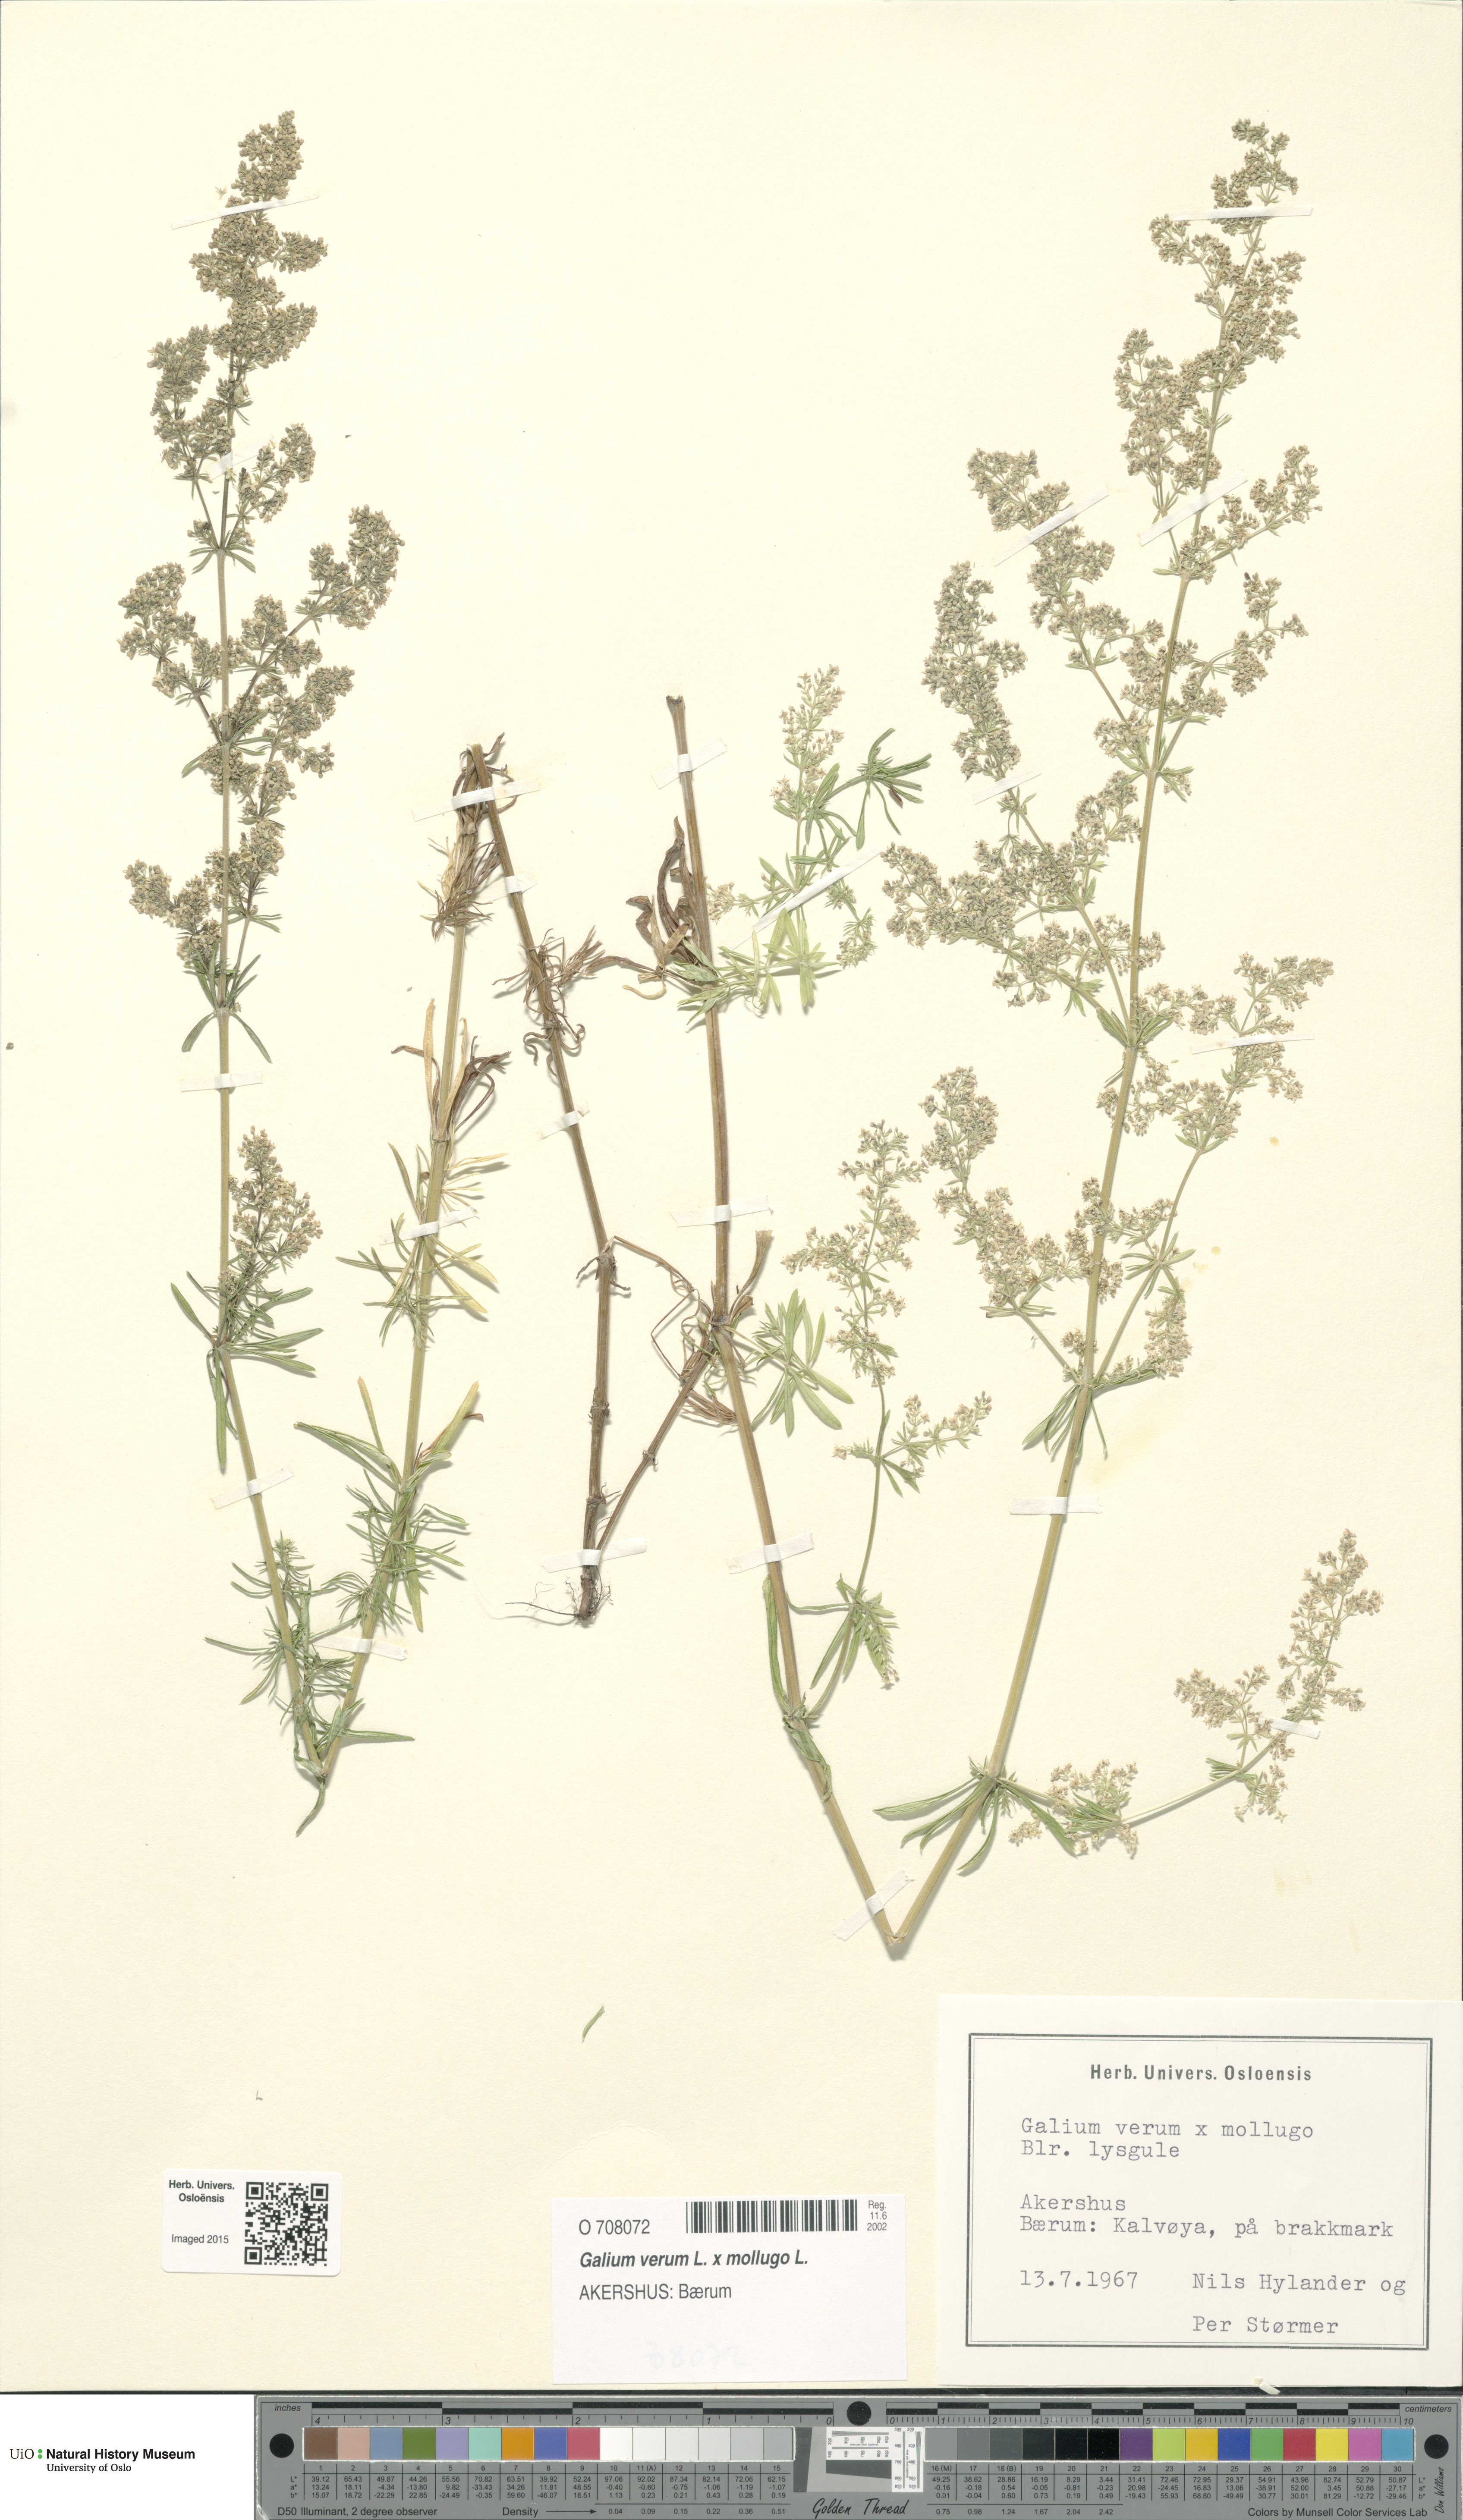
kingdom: Plantae
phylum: Tracheophyta
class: Magnoliopsida
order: Gentianales
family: Rubiaceae
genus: Galium
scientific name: Galium
